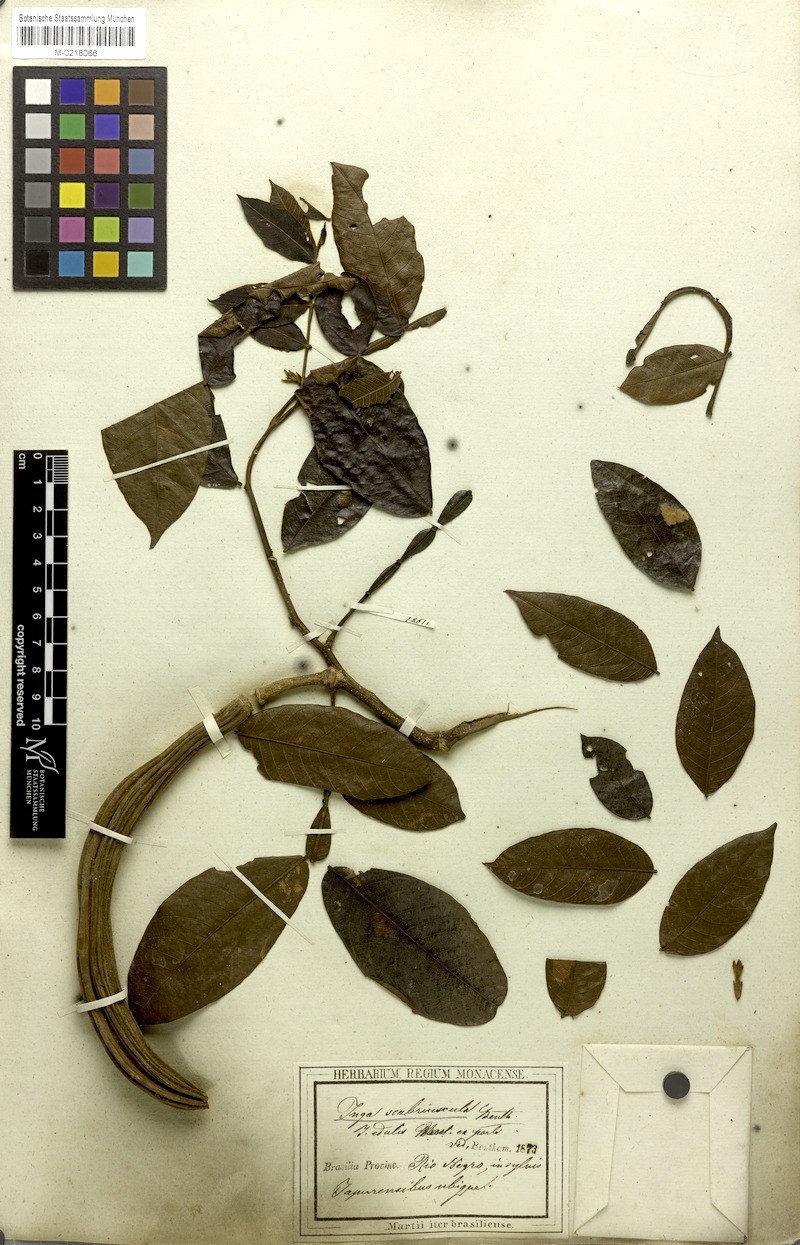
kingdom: Plantae
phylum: Tracheophyta
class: Magnoliopsida
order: Fabales
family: Fabaceae
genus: Inga
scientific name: Inga edulis
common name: Ice cream bean
